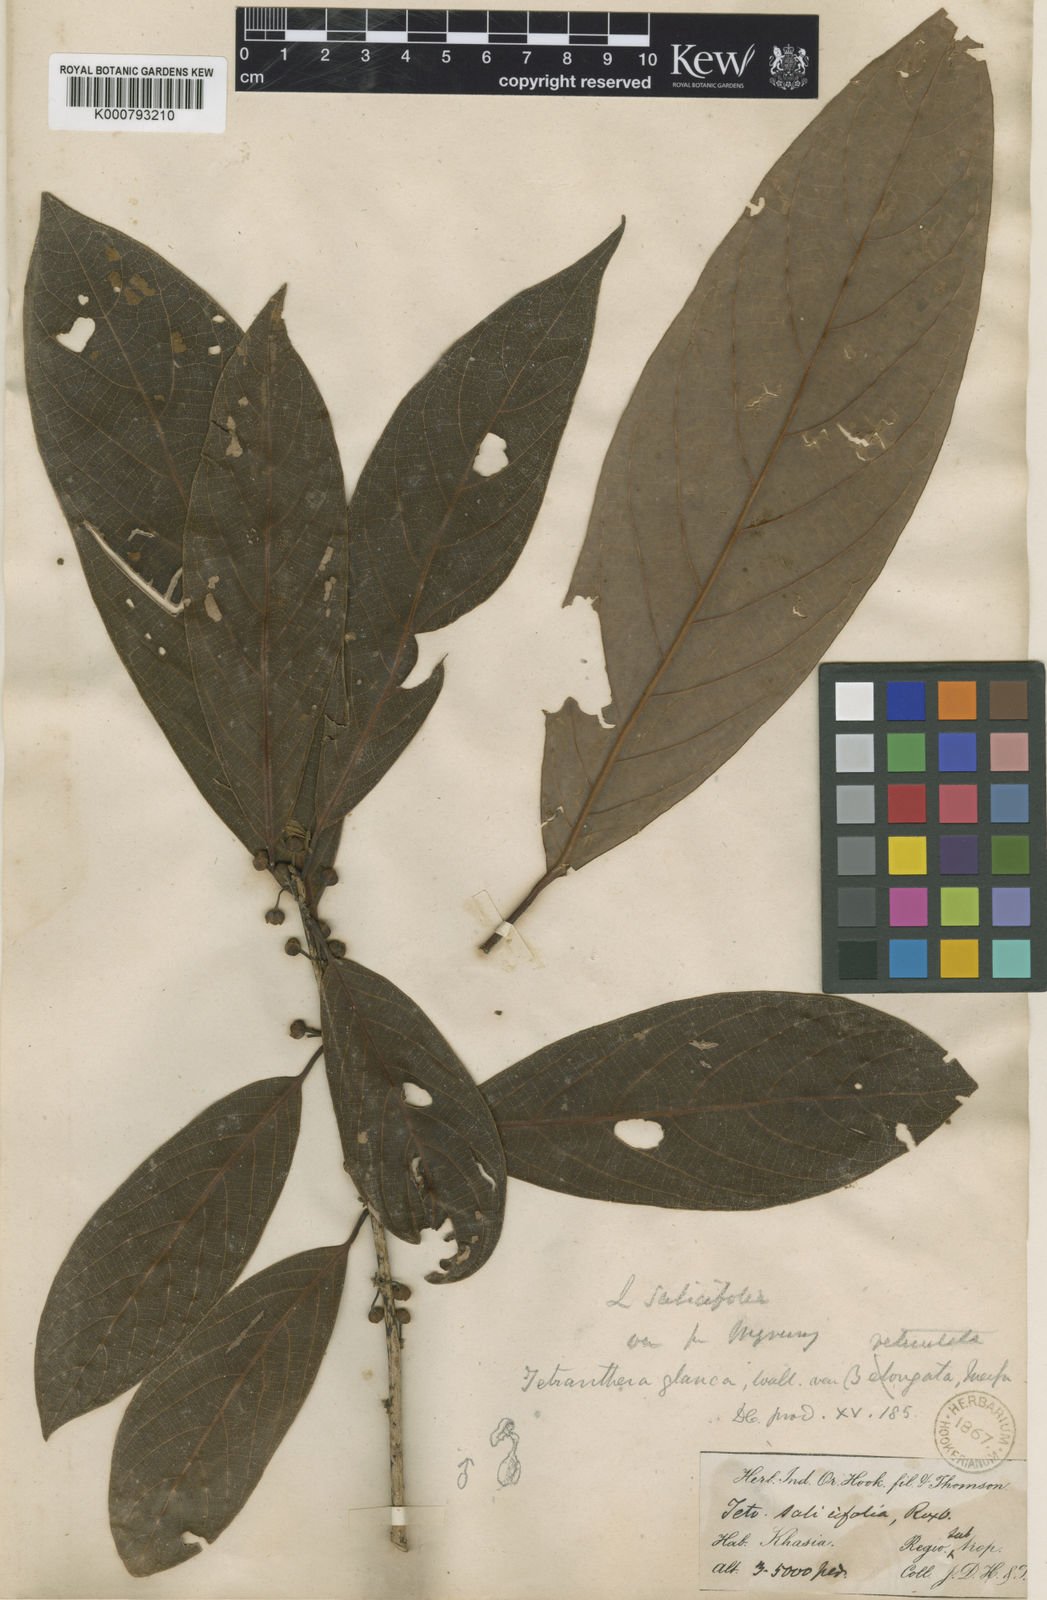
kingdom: Plantae
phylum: Tracheophyta
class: Magnoliopsida
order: Laurales
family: Lauraceae
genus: Litsea
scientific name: Litsea salicifolia
